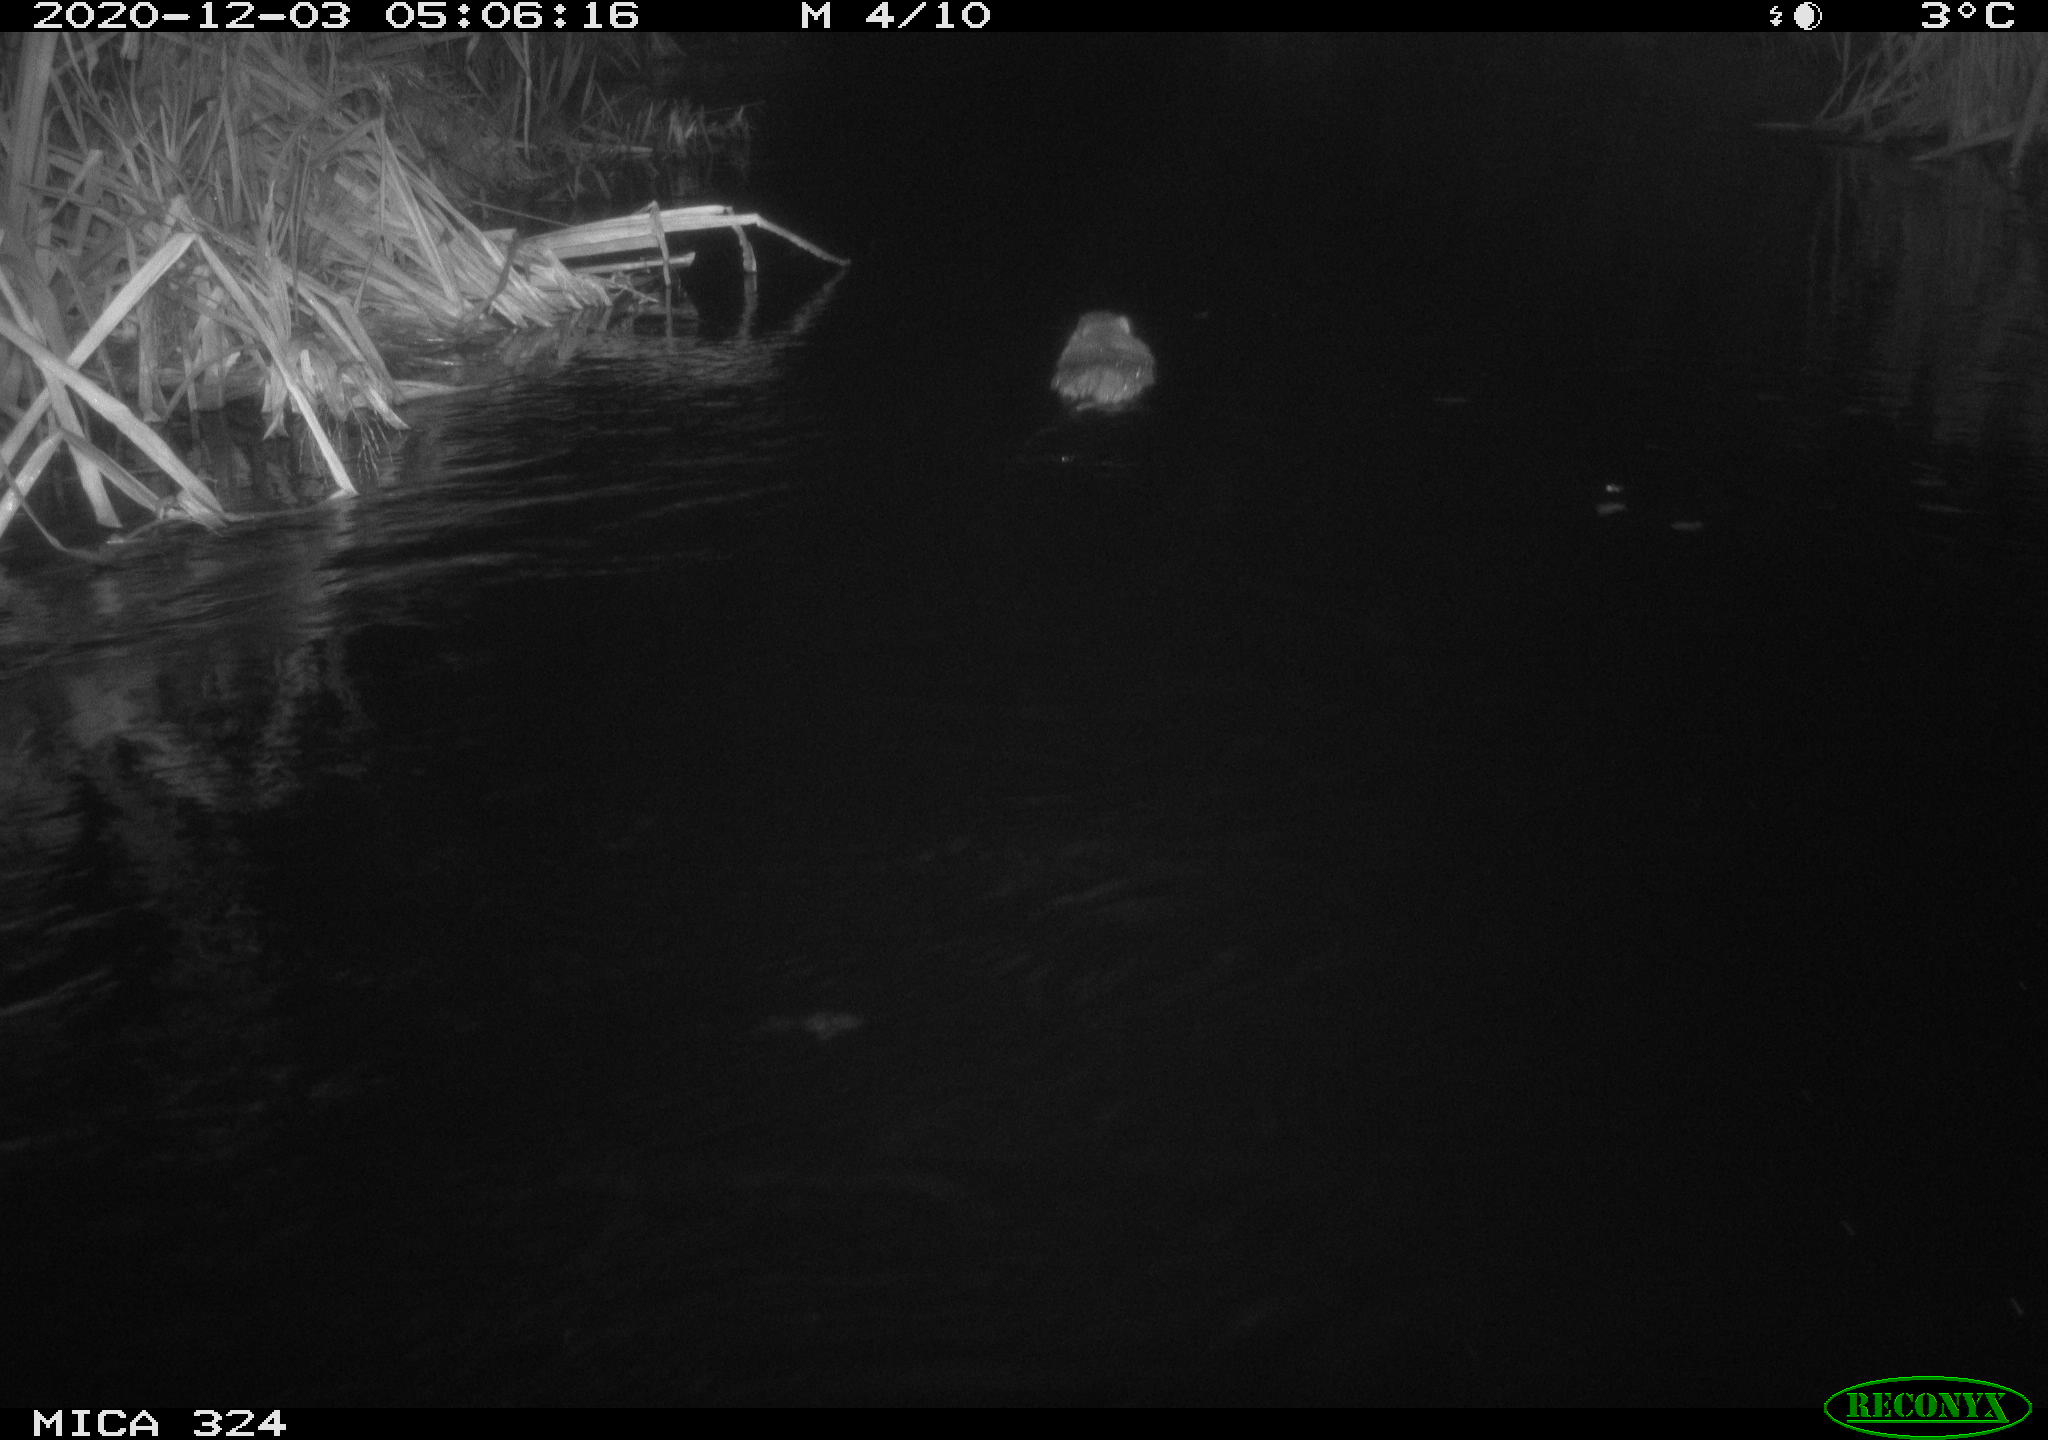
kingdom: Animalia
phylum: Chordata
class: Mammalia
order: Rodentia
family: Myocastoridae
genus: Myocastor
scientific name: Myocastor coypus
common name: Coypu
